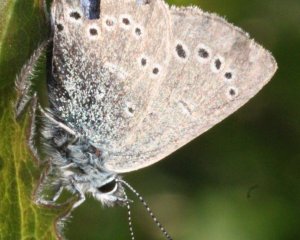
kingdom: Animalia
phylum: Arthropoda
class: Insecta
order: Lepidoptera
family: Lycaenidae
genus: Glaucopsyche
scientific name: Glaucopsyche lygdamus
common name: Silvery Blue
